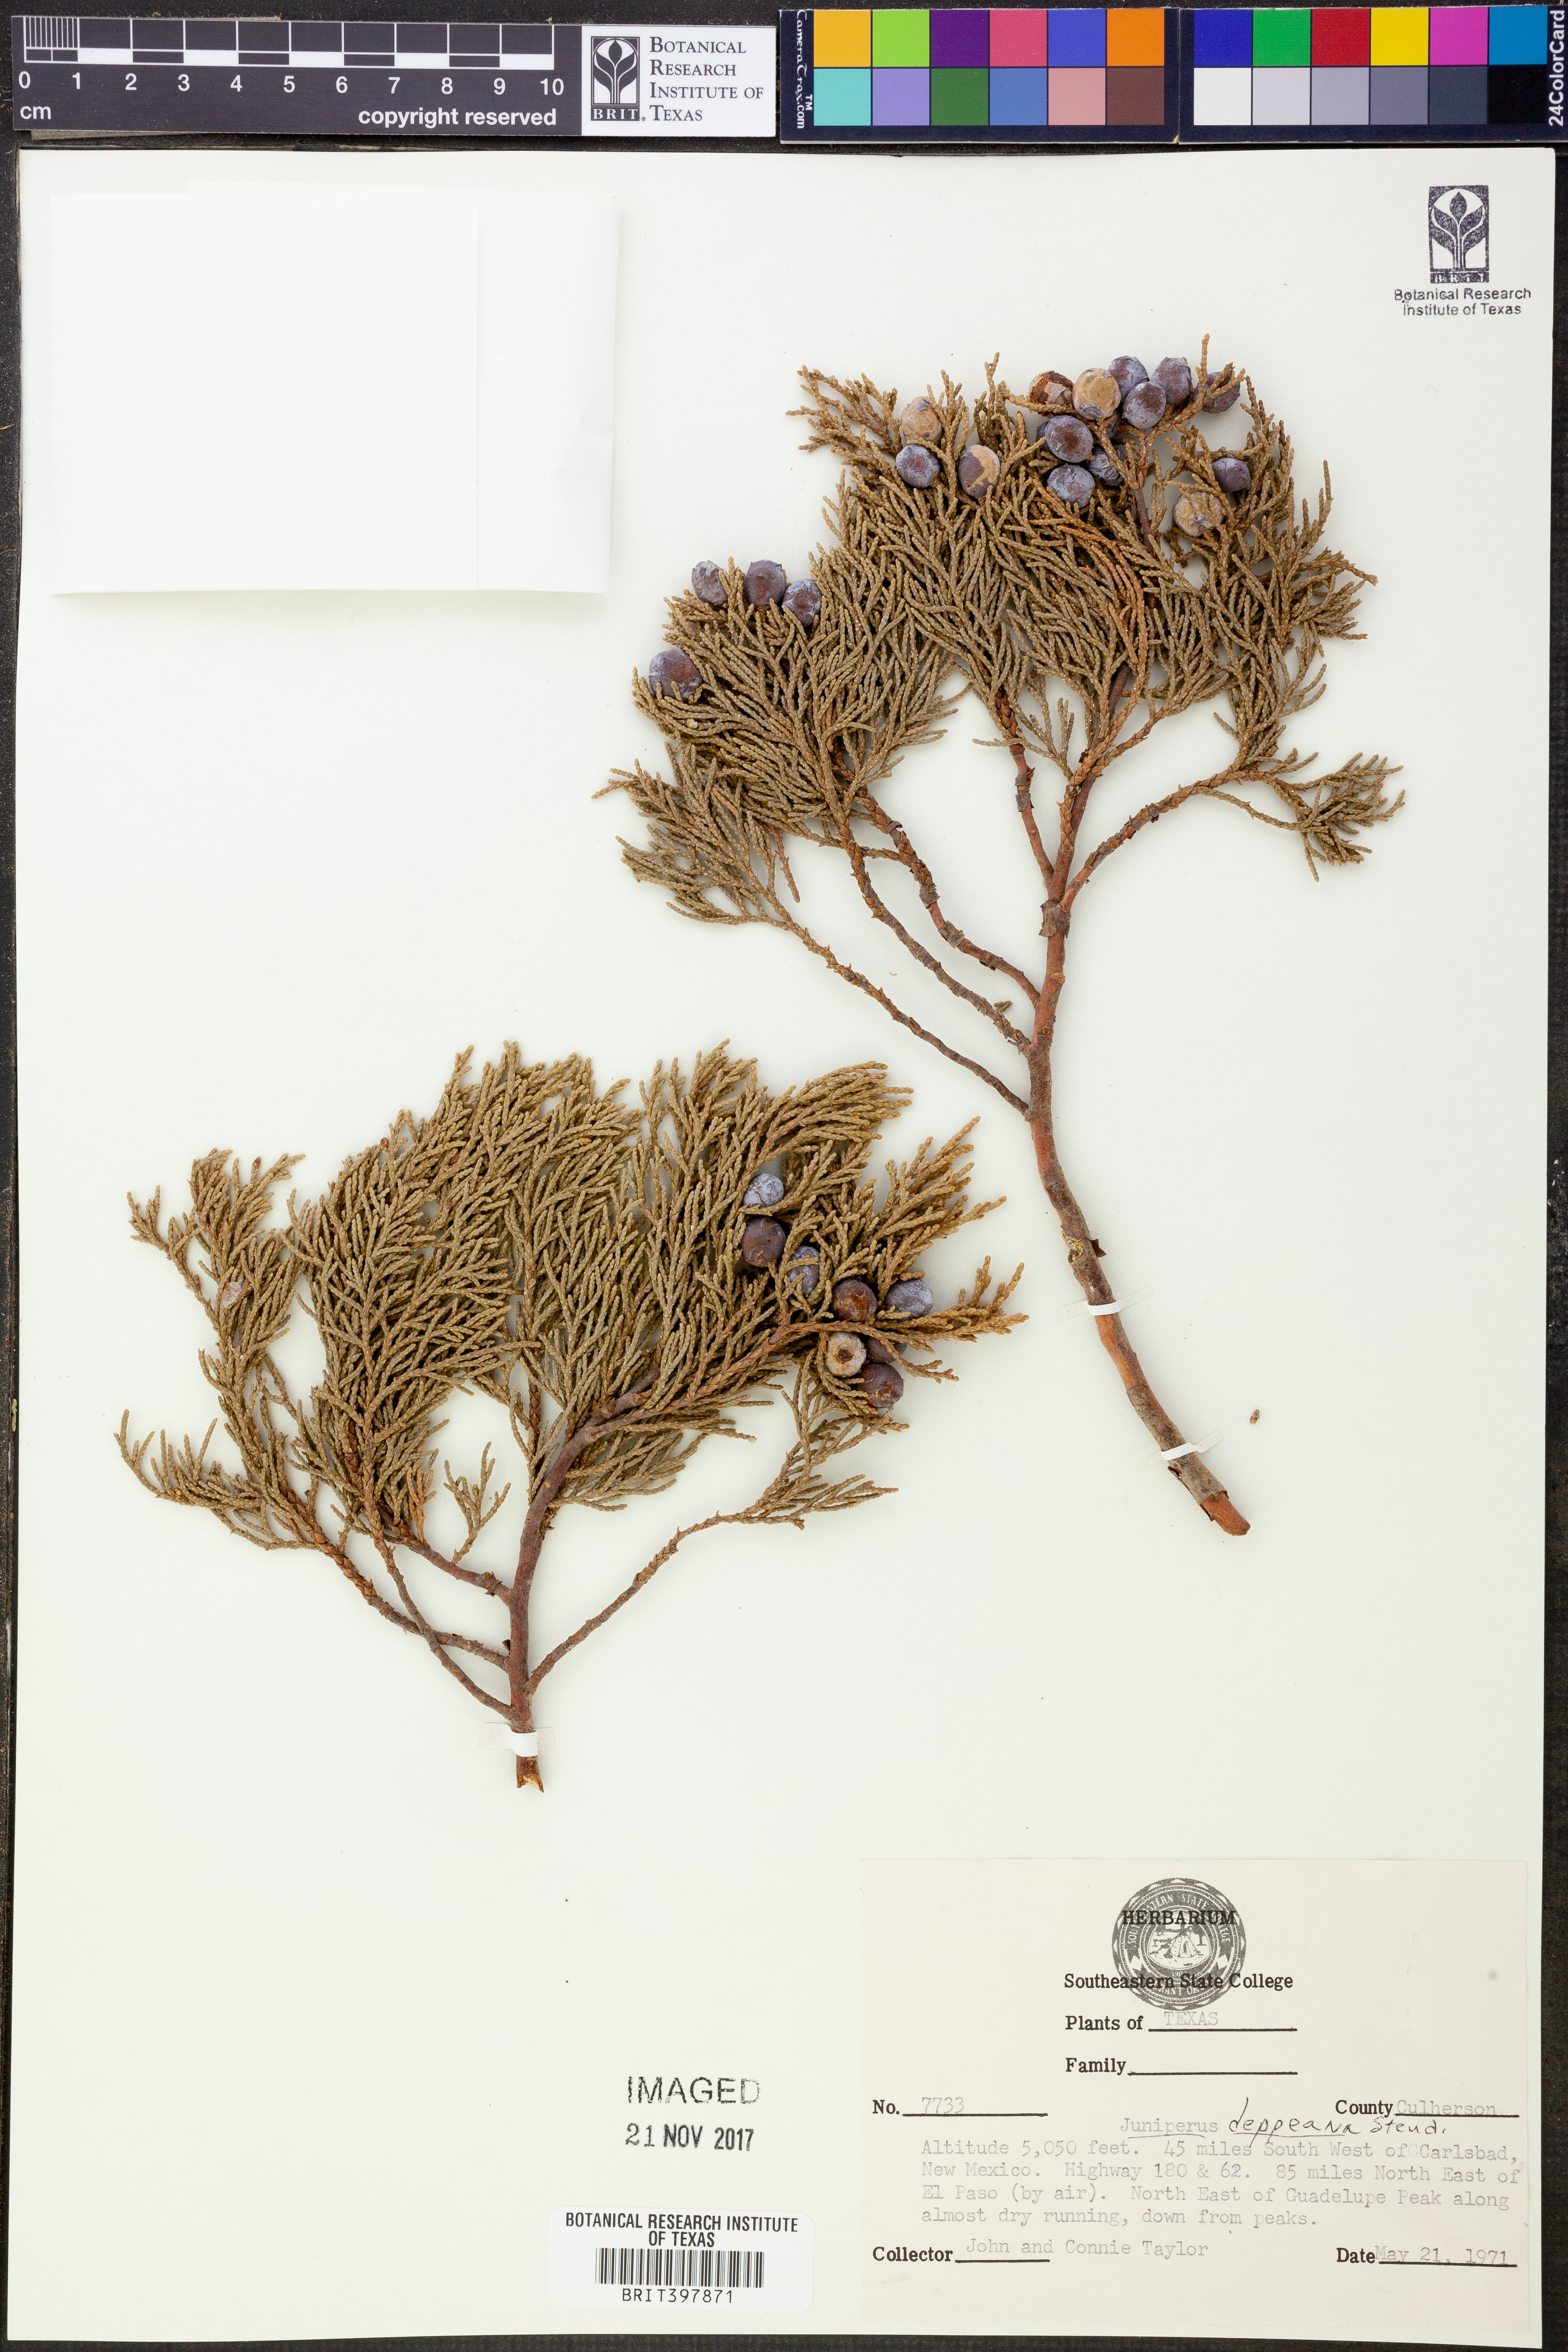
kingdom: Plantae
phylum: Tracheophyta
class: Pinopsida
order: Pinales
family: Cupressaceae
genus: Juniperus
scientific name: Juniperus deppeana
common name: Alligator juniper
